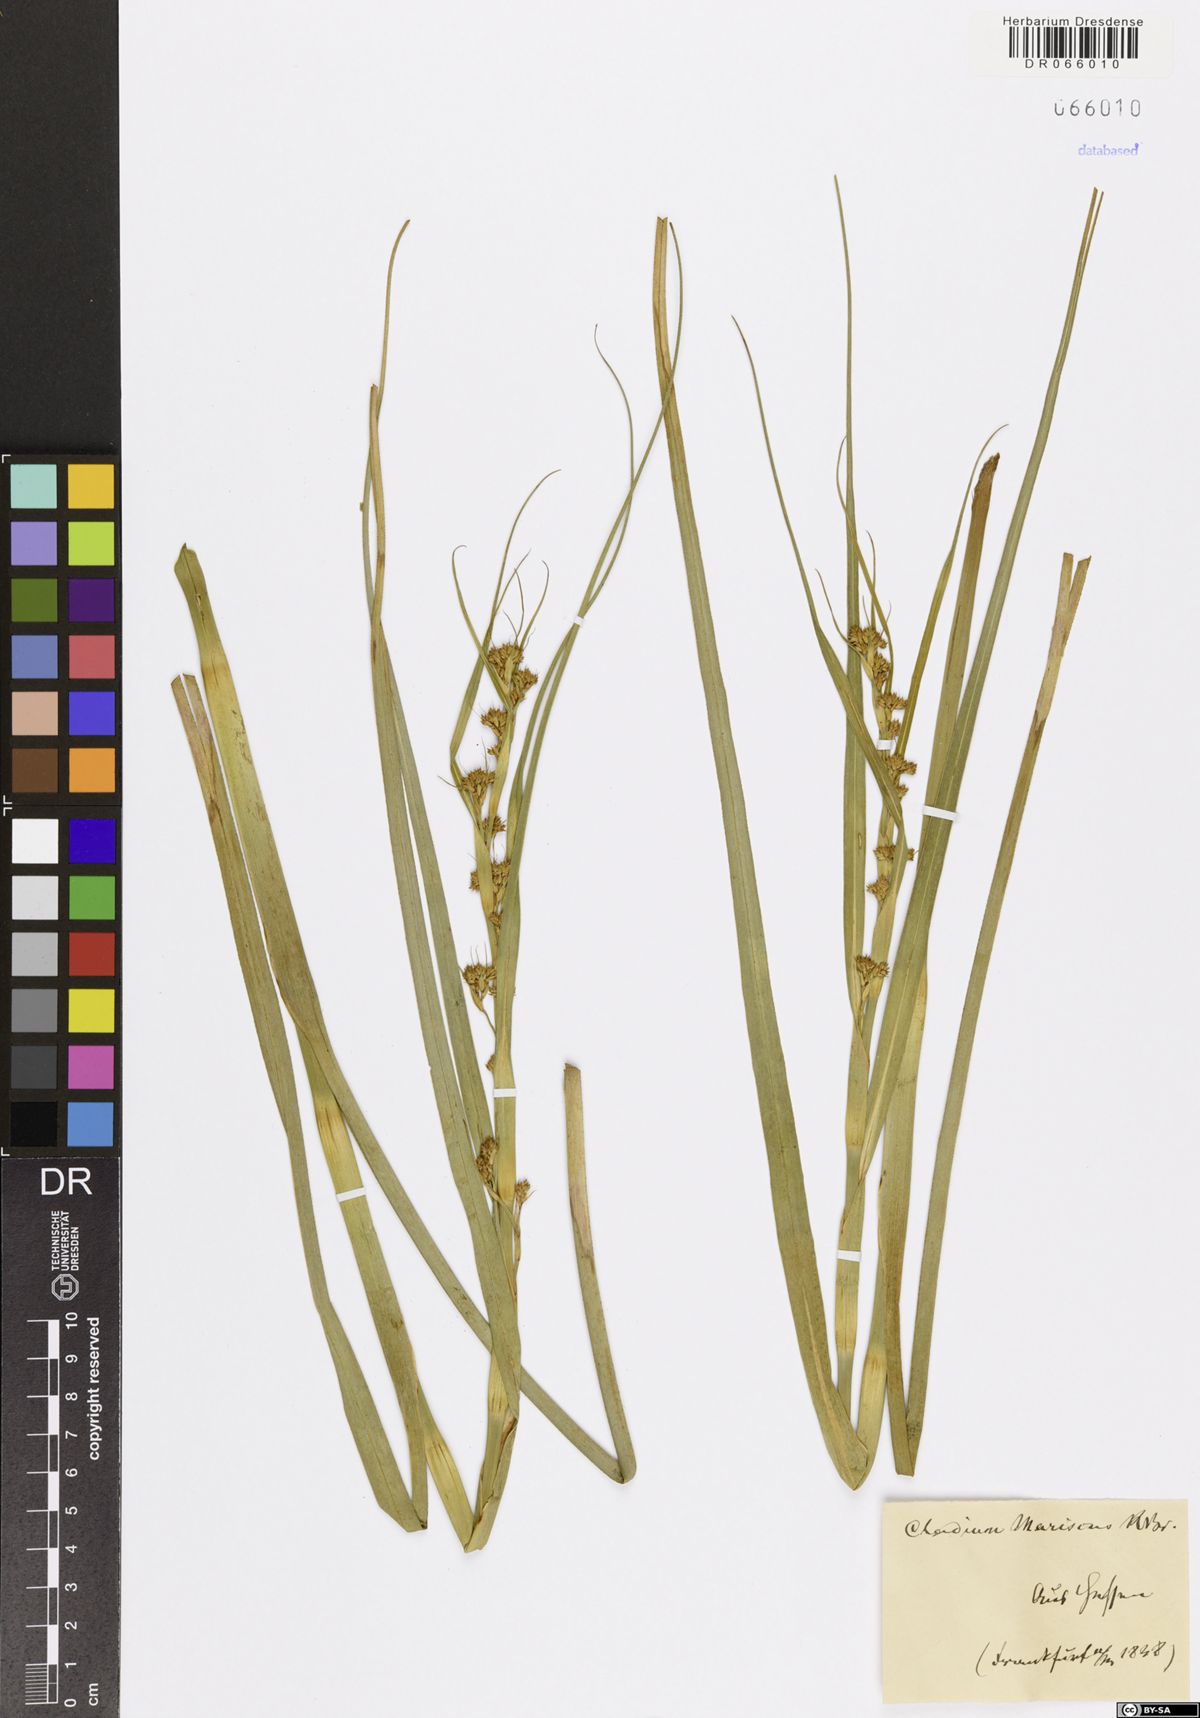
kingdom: Plantae
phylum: Tracheophyta
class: Liliopsida
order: Poales
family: Cyperaceae
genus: Cladium
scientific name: Cladium mariscus
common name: Great fen-sedge
